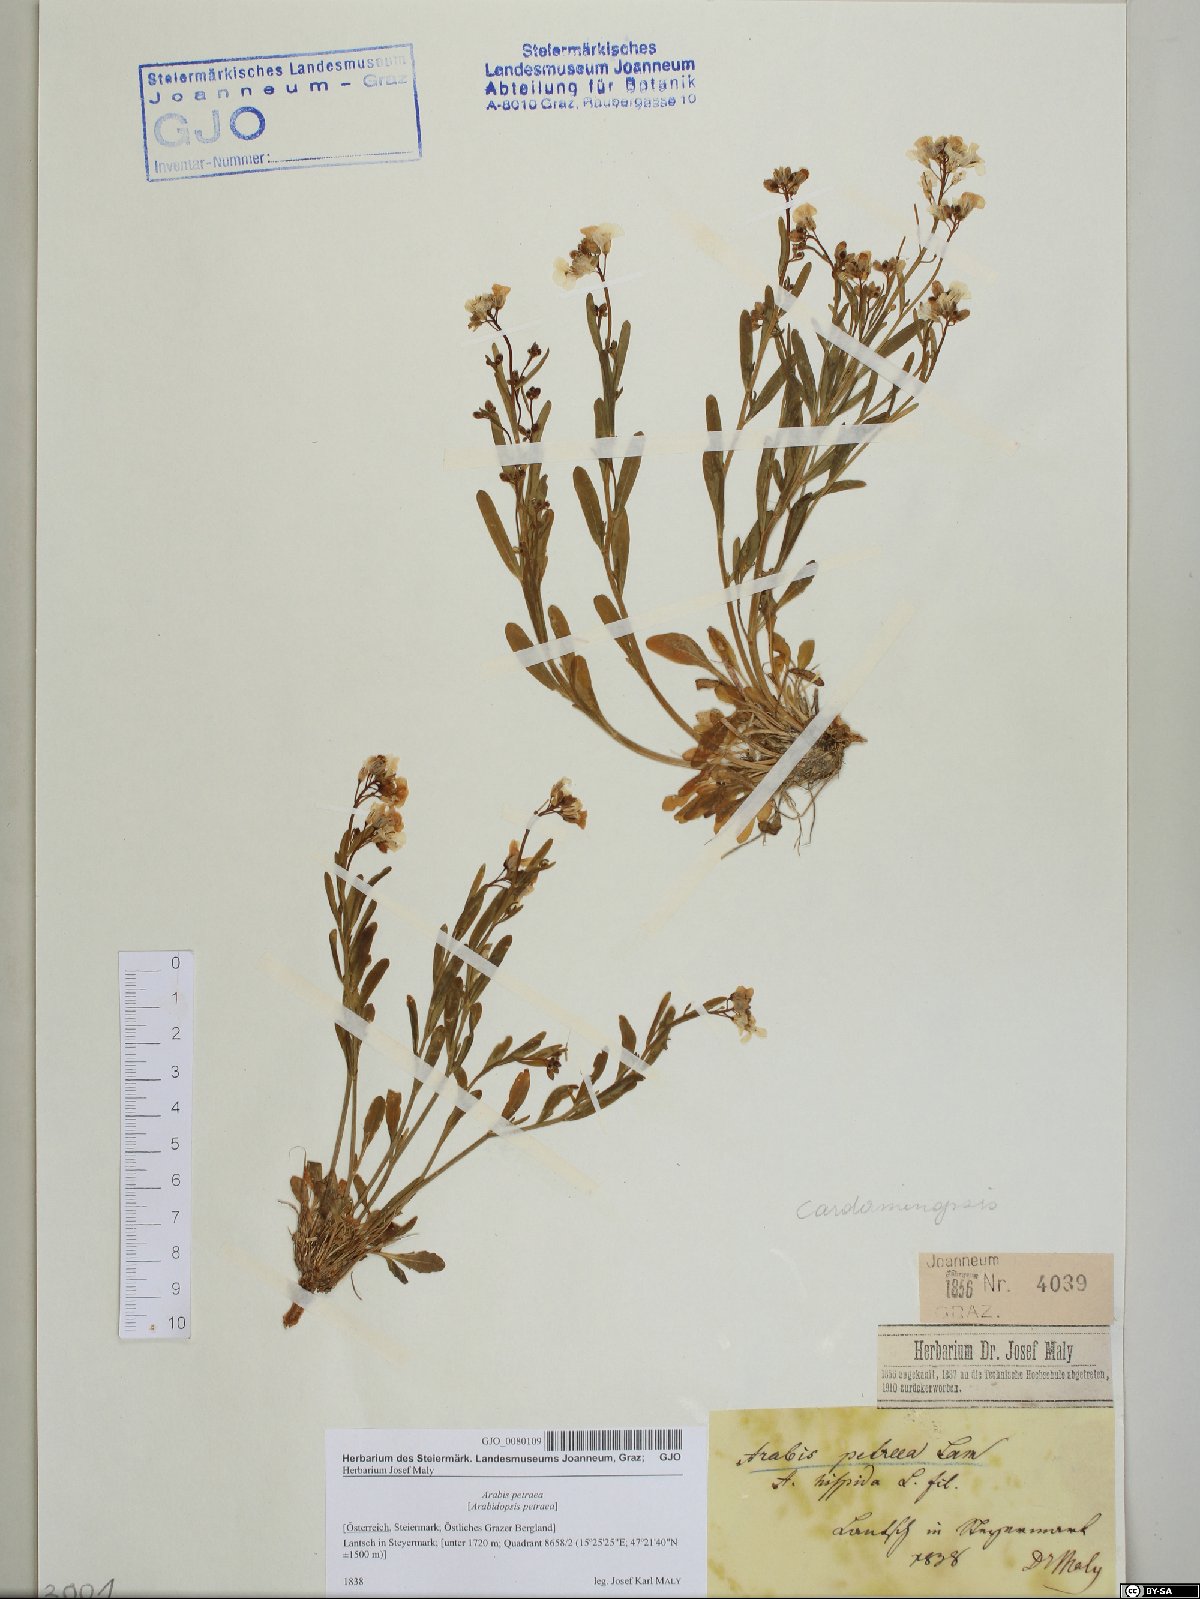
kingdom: Plantae
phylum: Tracheophyta
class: Magnoliopsida
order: Brassicales
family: Brassicaceae
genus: Arabidopsis
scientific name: Arabidopsis lyrata
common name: Lyrate rockcress
